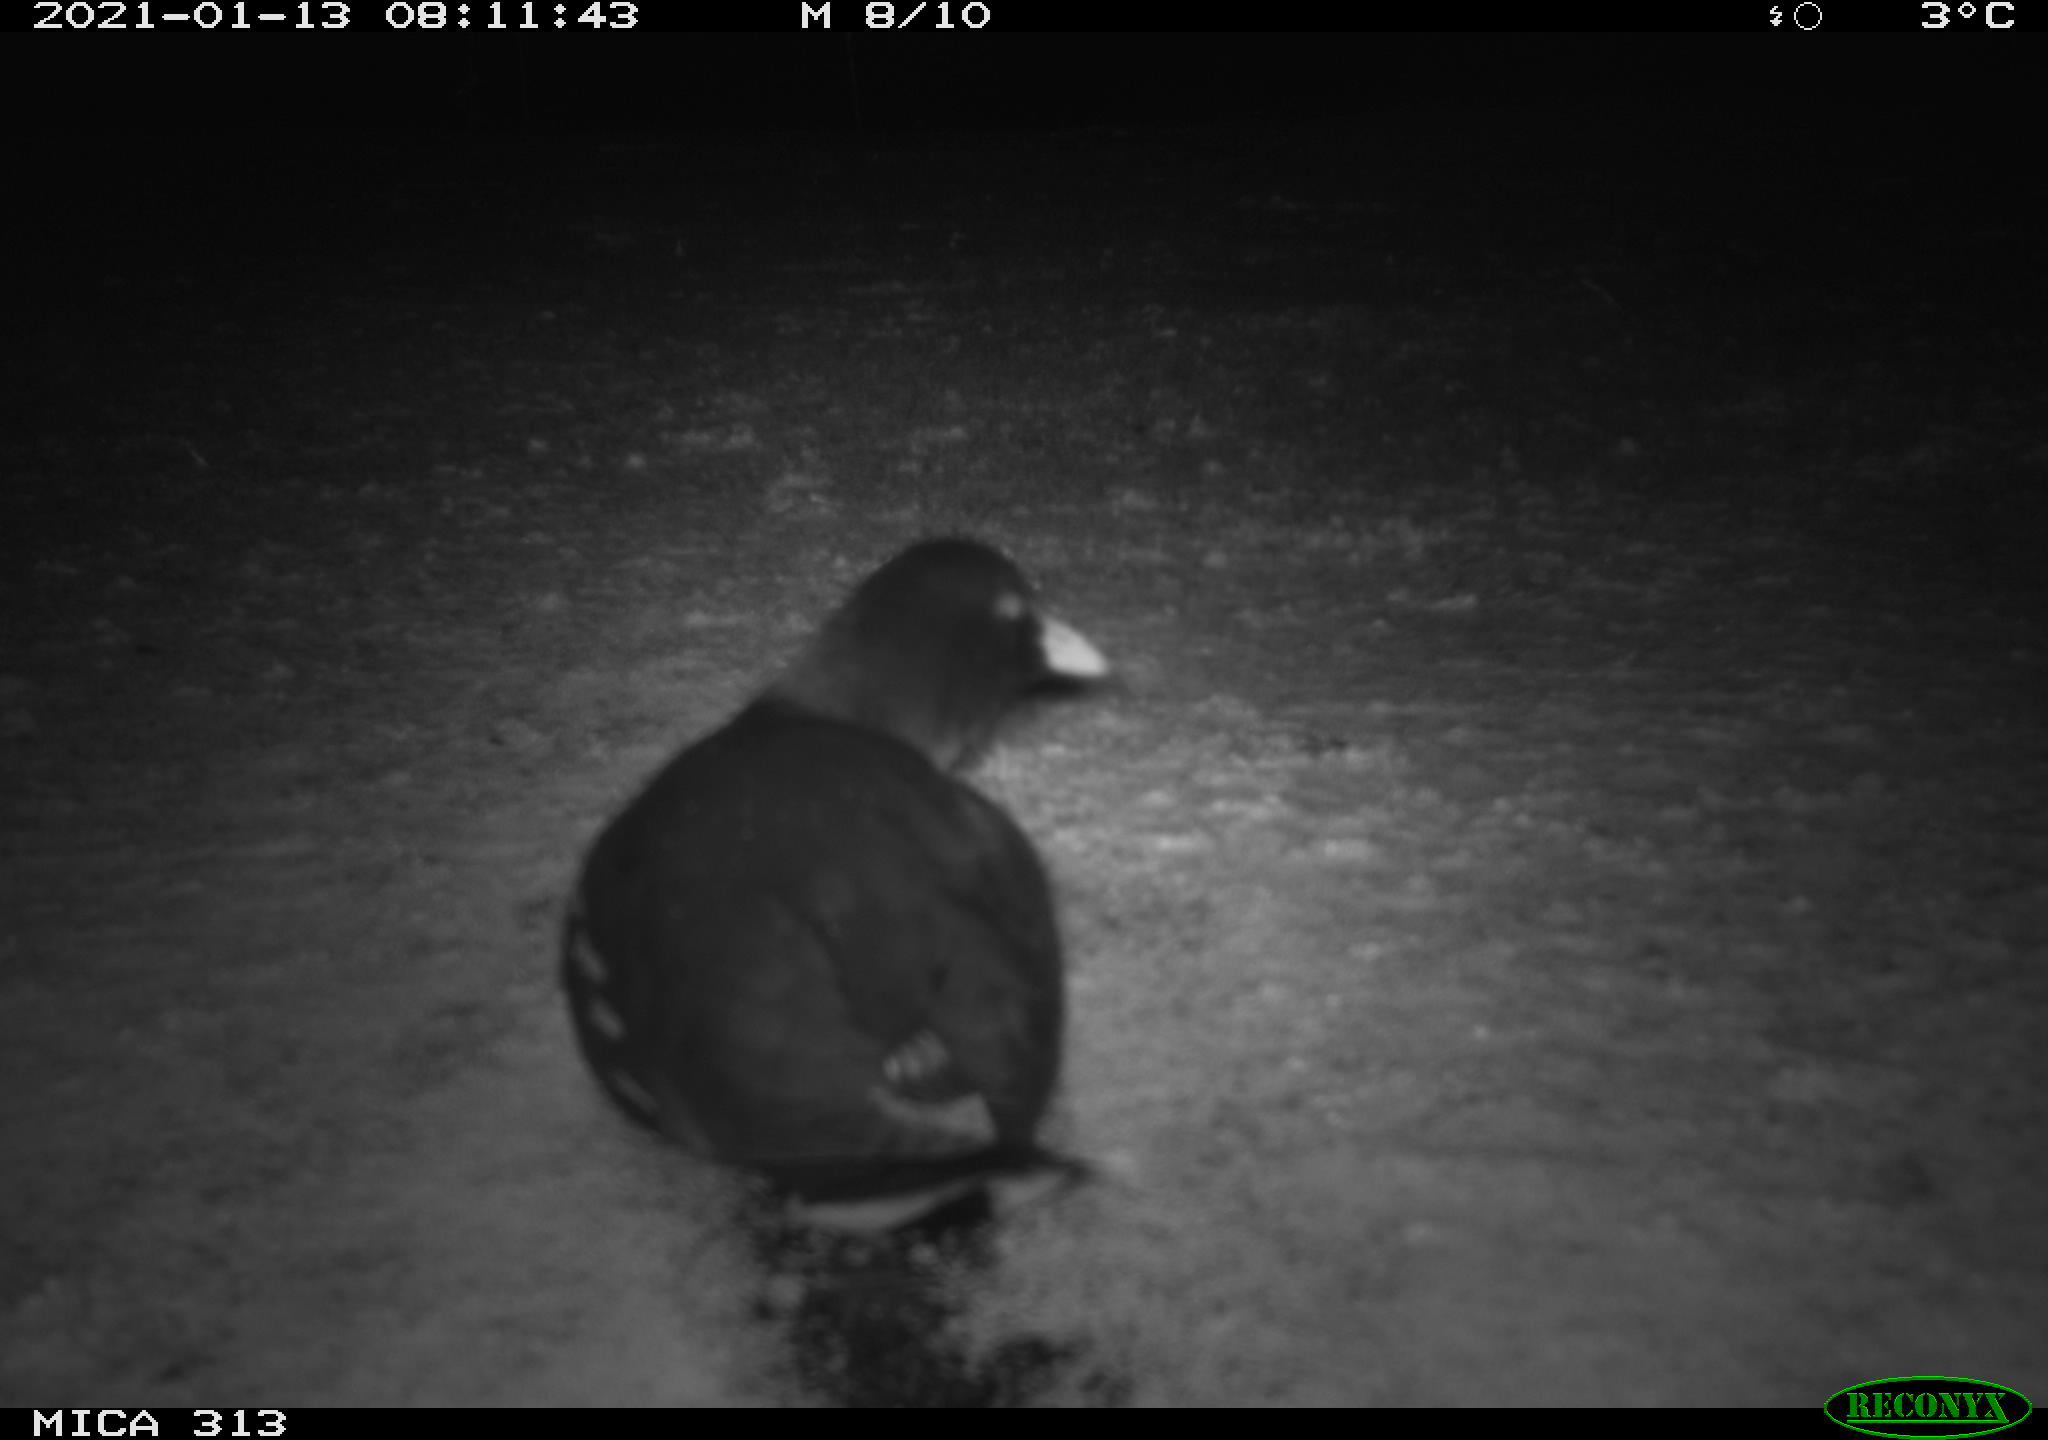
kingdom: Animalia
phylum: Chordata
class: Aves
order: Gruiformes
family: Rallidae
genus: Gallinula
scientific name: Gallinula chloropus
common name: Common moorhen
